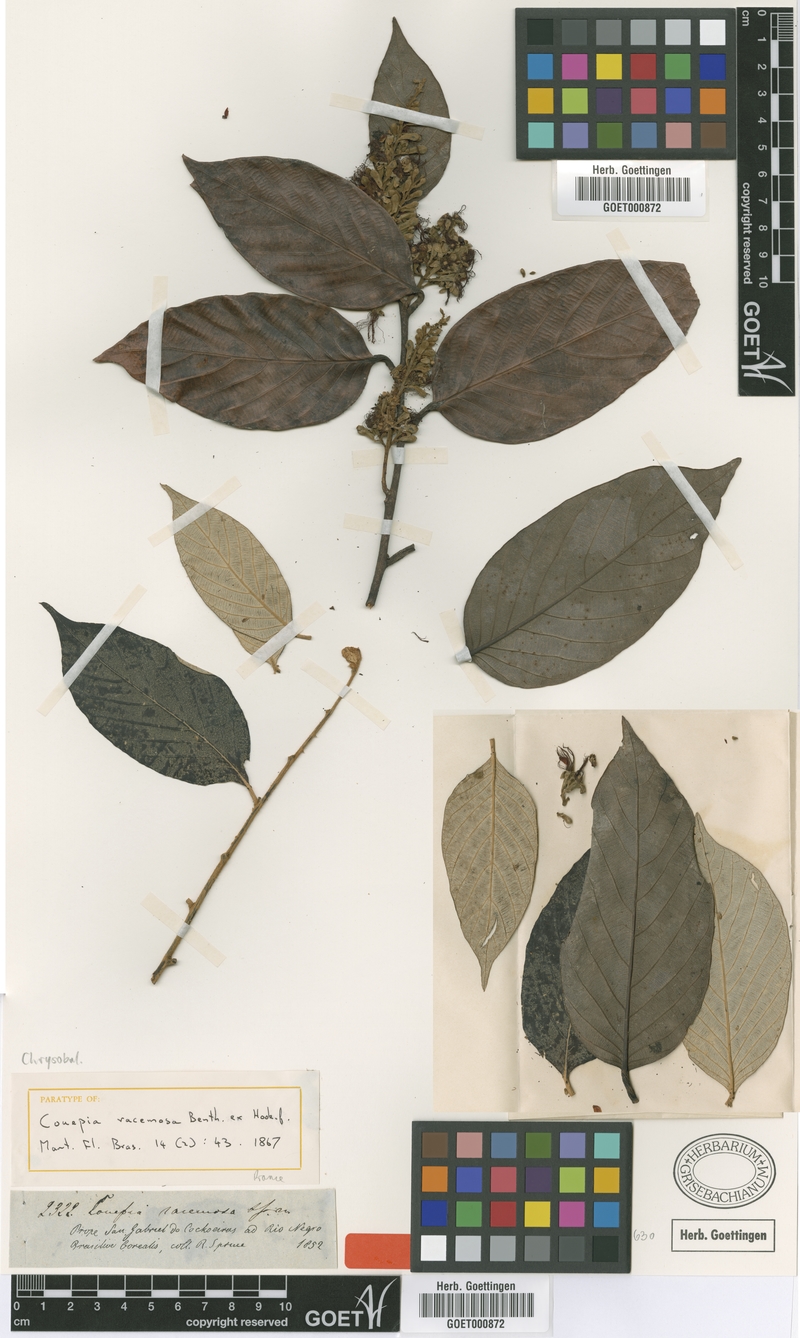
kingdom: Plantae
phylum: Tracheophyta
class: Magnoliopsida
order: Malpighiales
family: Chrysobalanaceae
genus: Gaulettia
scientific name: Gaulettia racemosa
